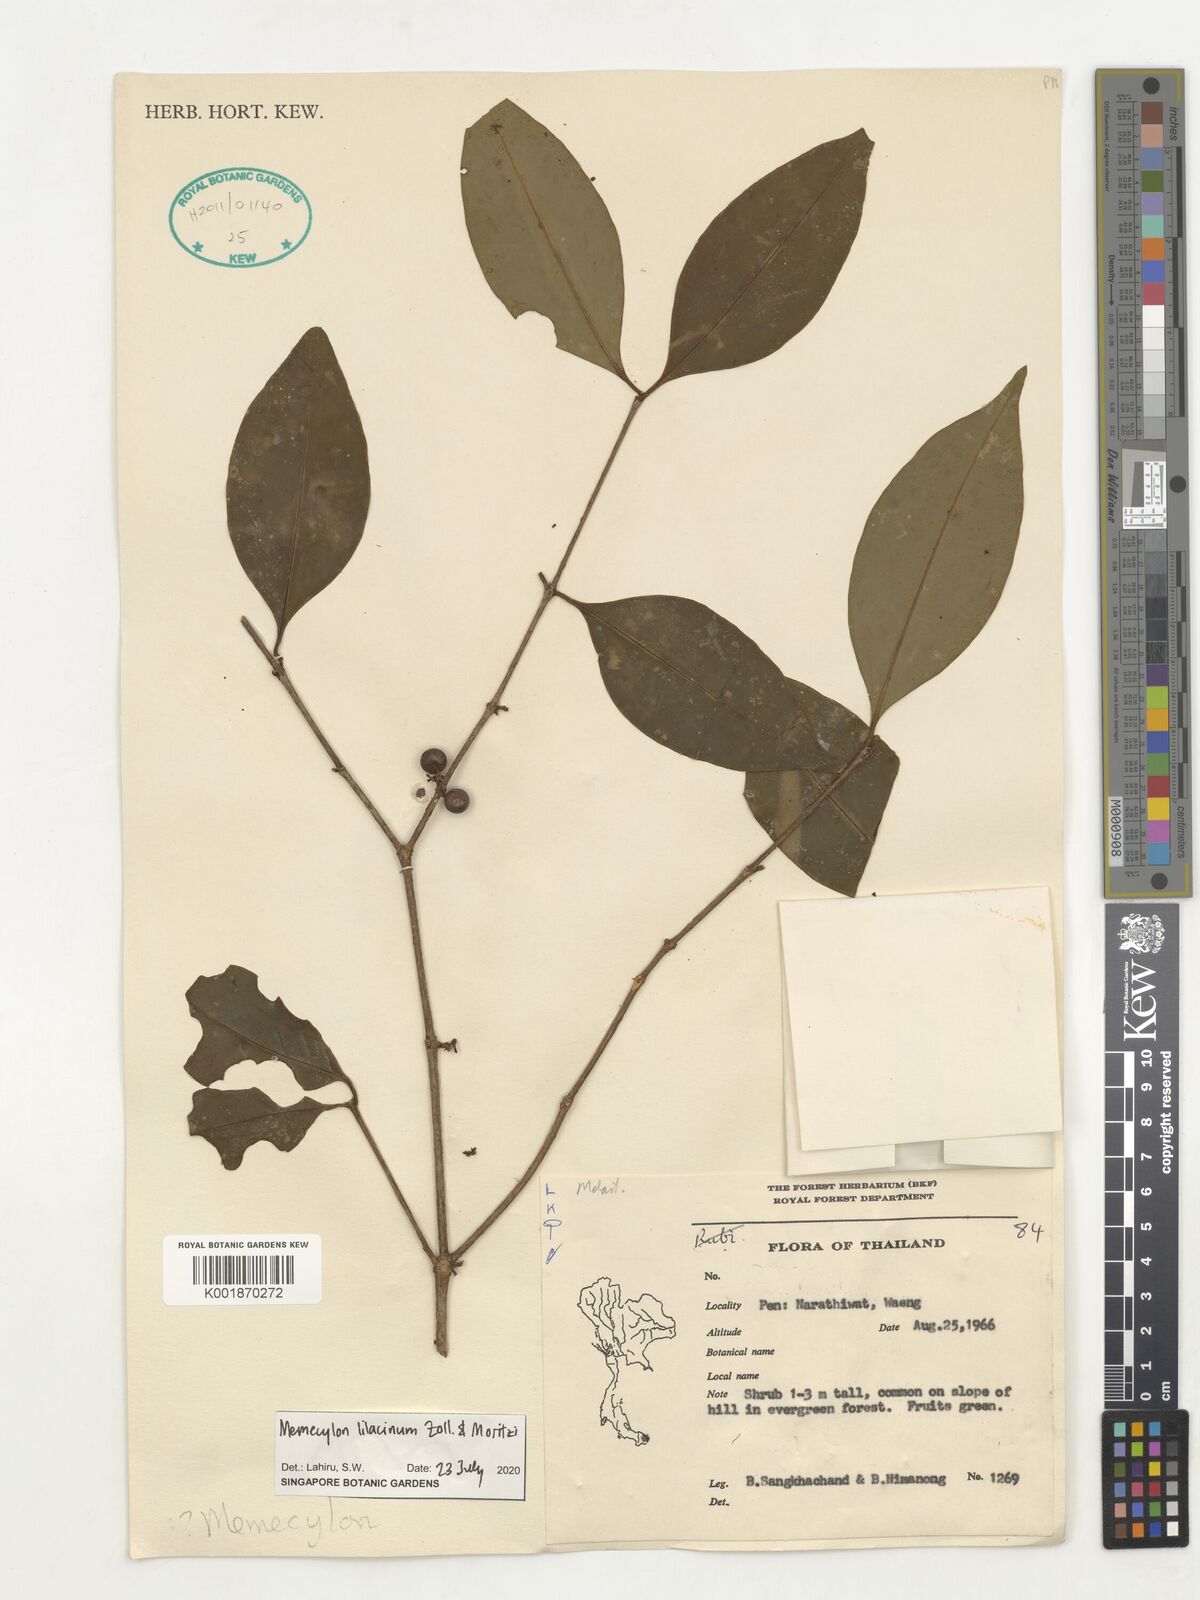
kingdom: Plantae
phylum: Tracheophyta
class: Magnoliopsida
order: Myrtales
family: Melastomataceae
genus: Memecylon
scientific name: Memecylon lilacinum
